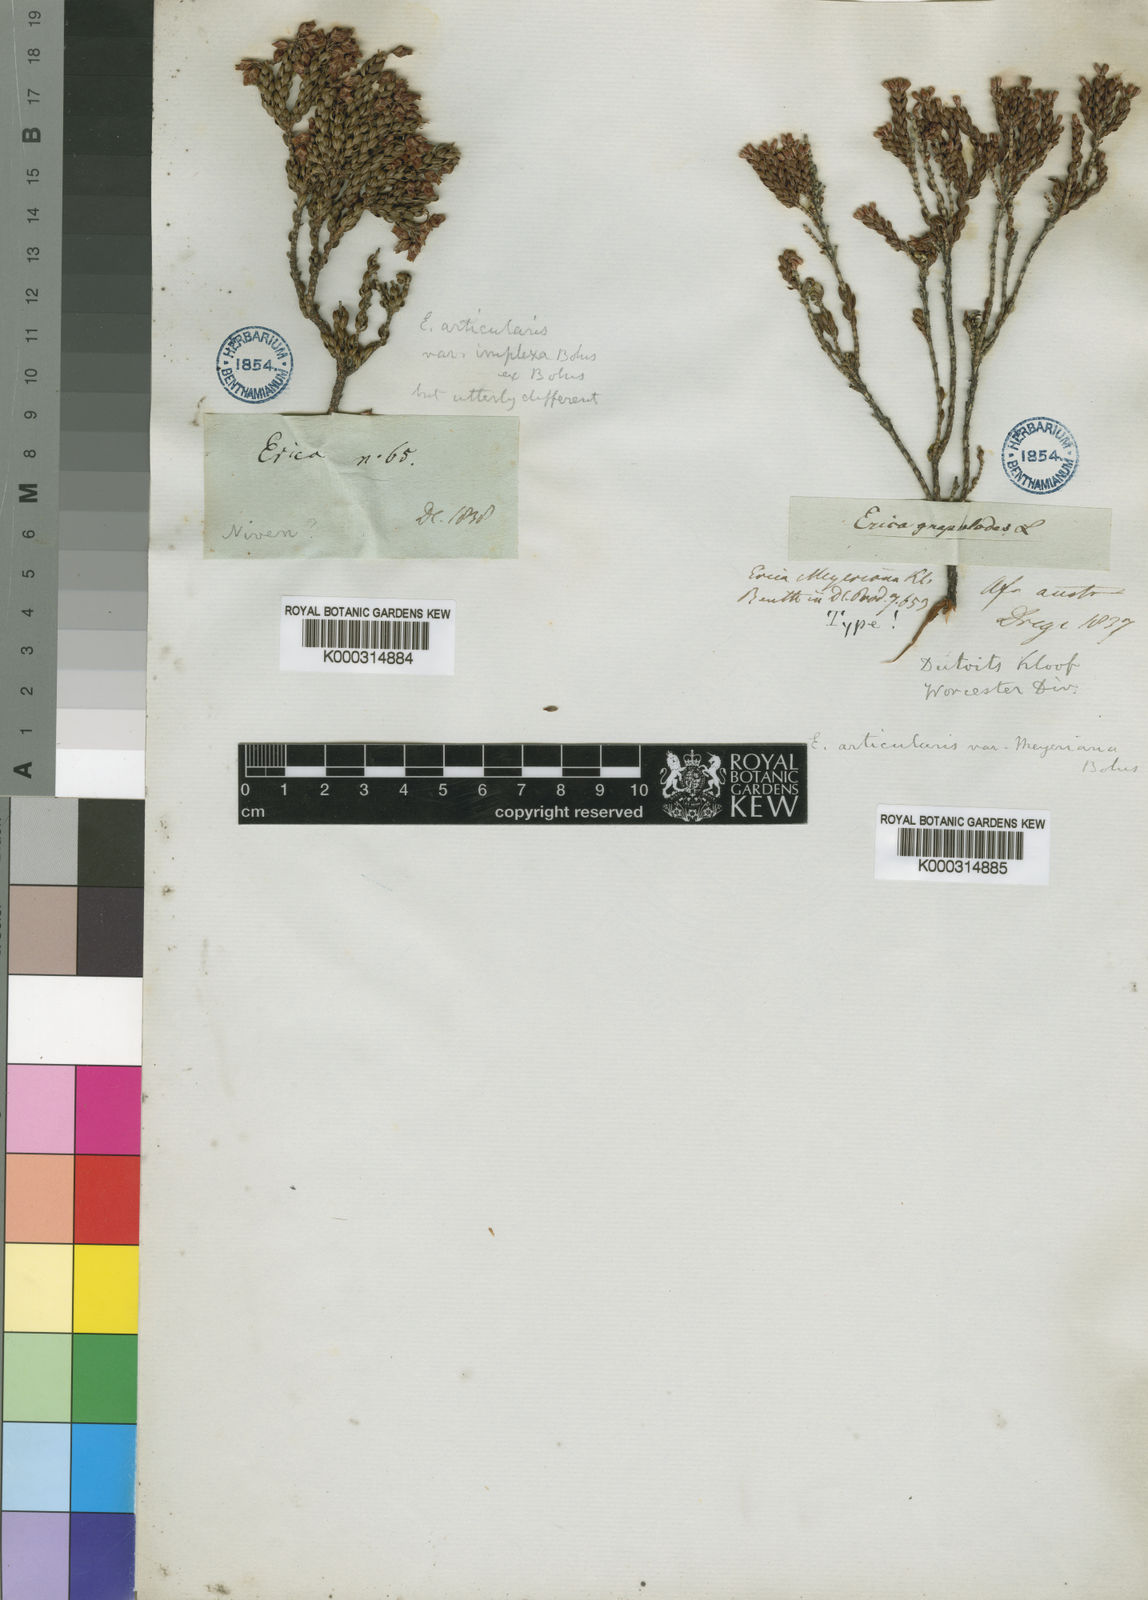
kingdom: Plantae
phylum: Tracheophyta
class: Magnoliopsida
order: Ericales
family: Ericaceae
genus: Erica
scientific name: Erica
